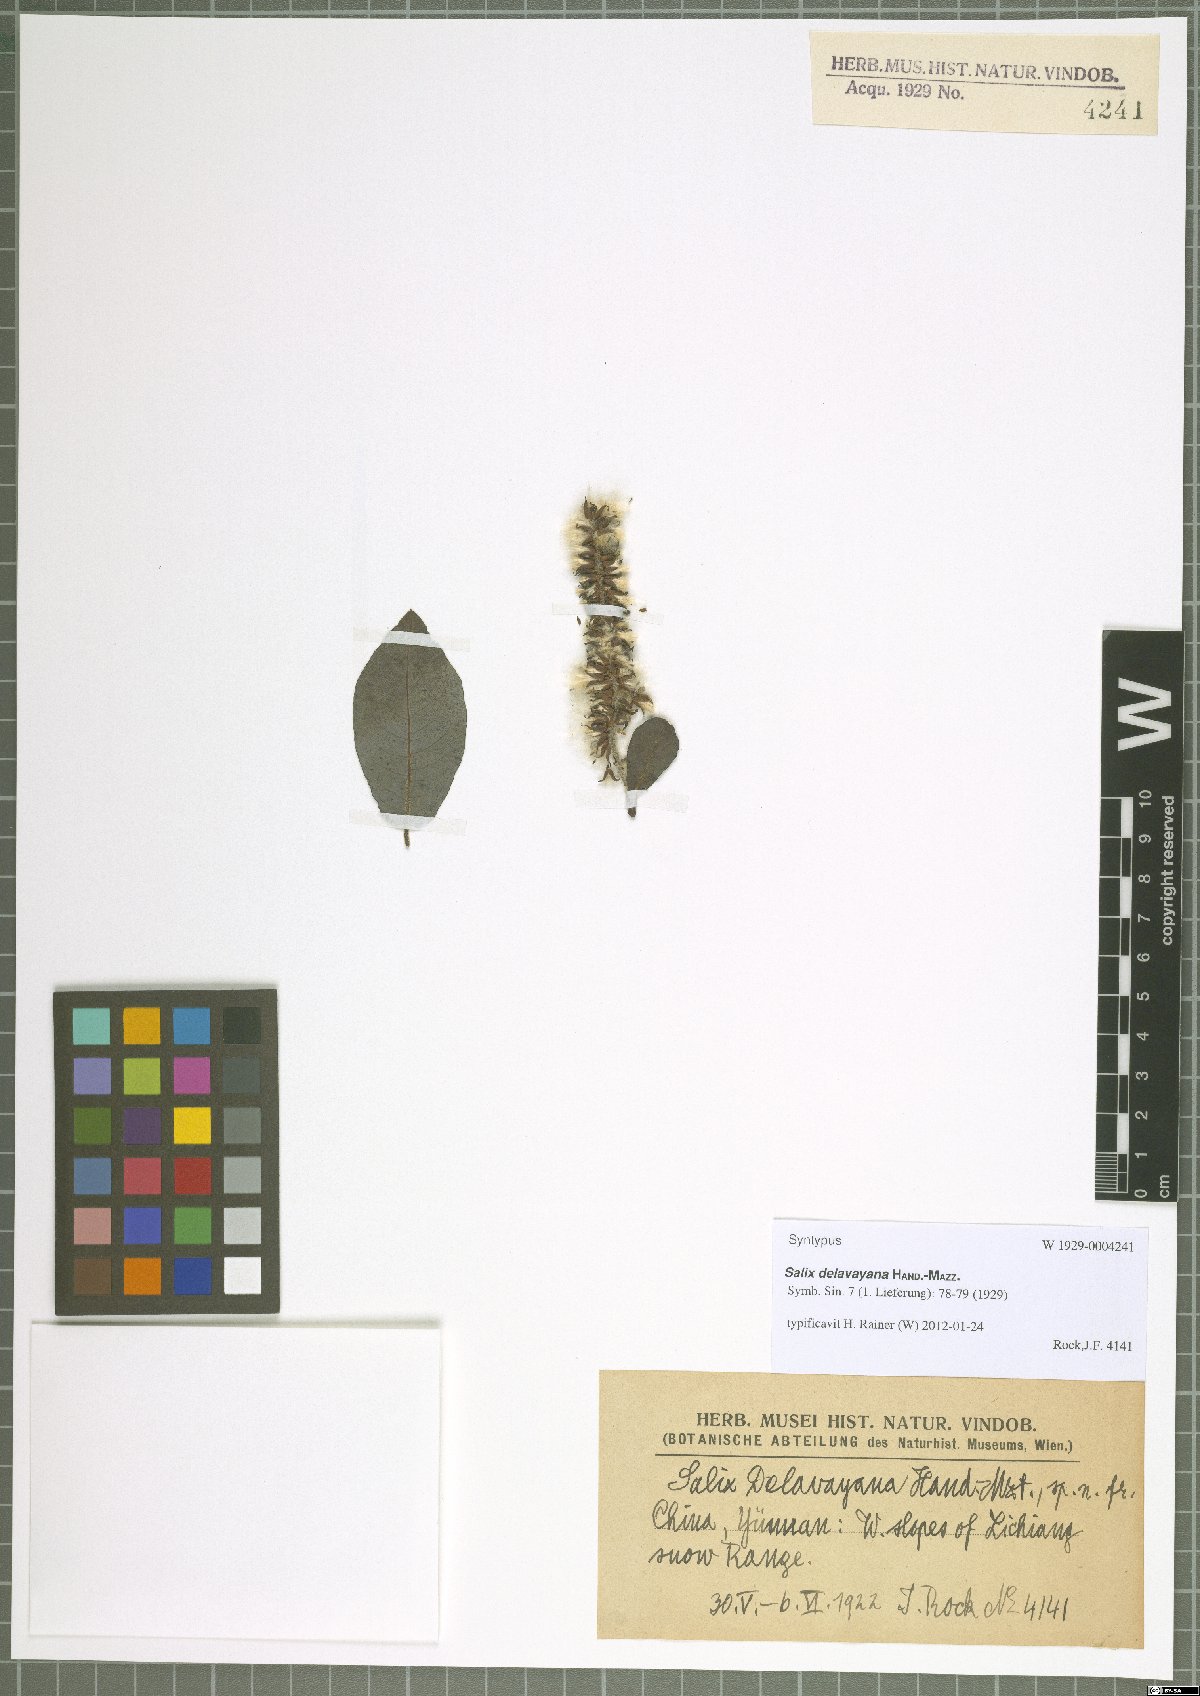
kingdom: Plantae
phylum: Tracheophyta
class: Magnoliopsida
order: Malpighiales
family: Salicaceae
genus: Salix
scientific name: Salix delavayana
